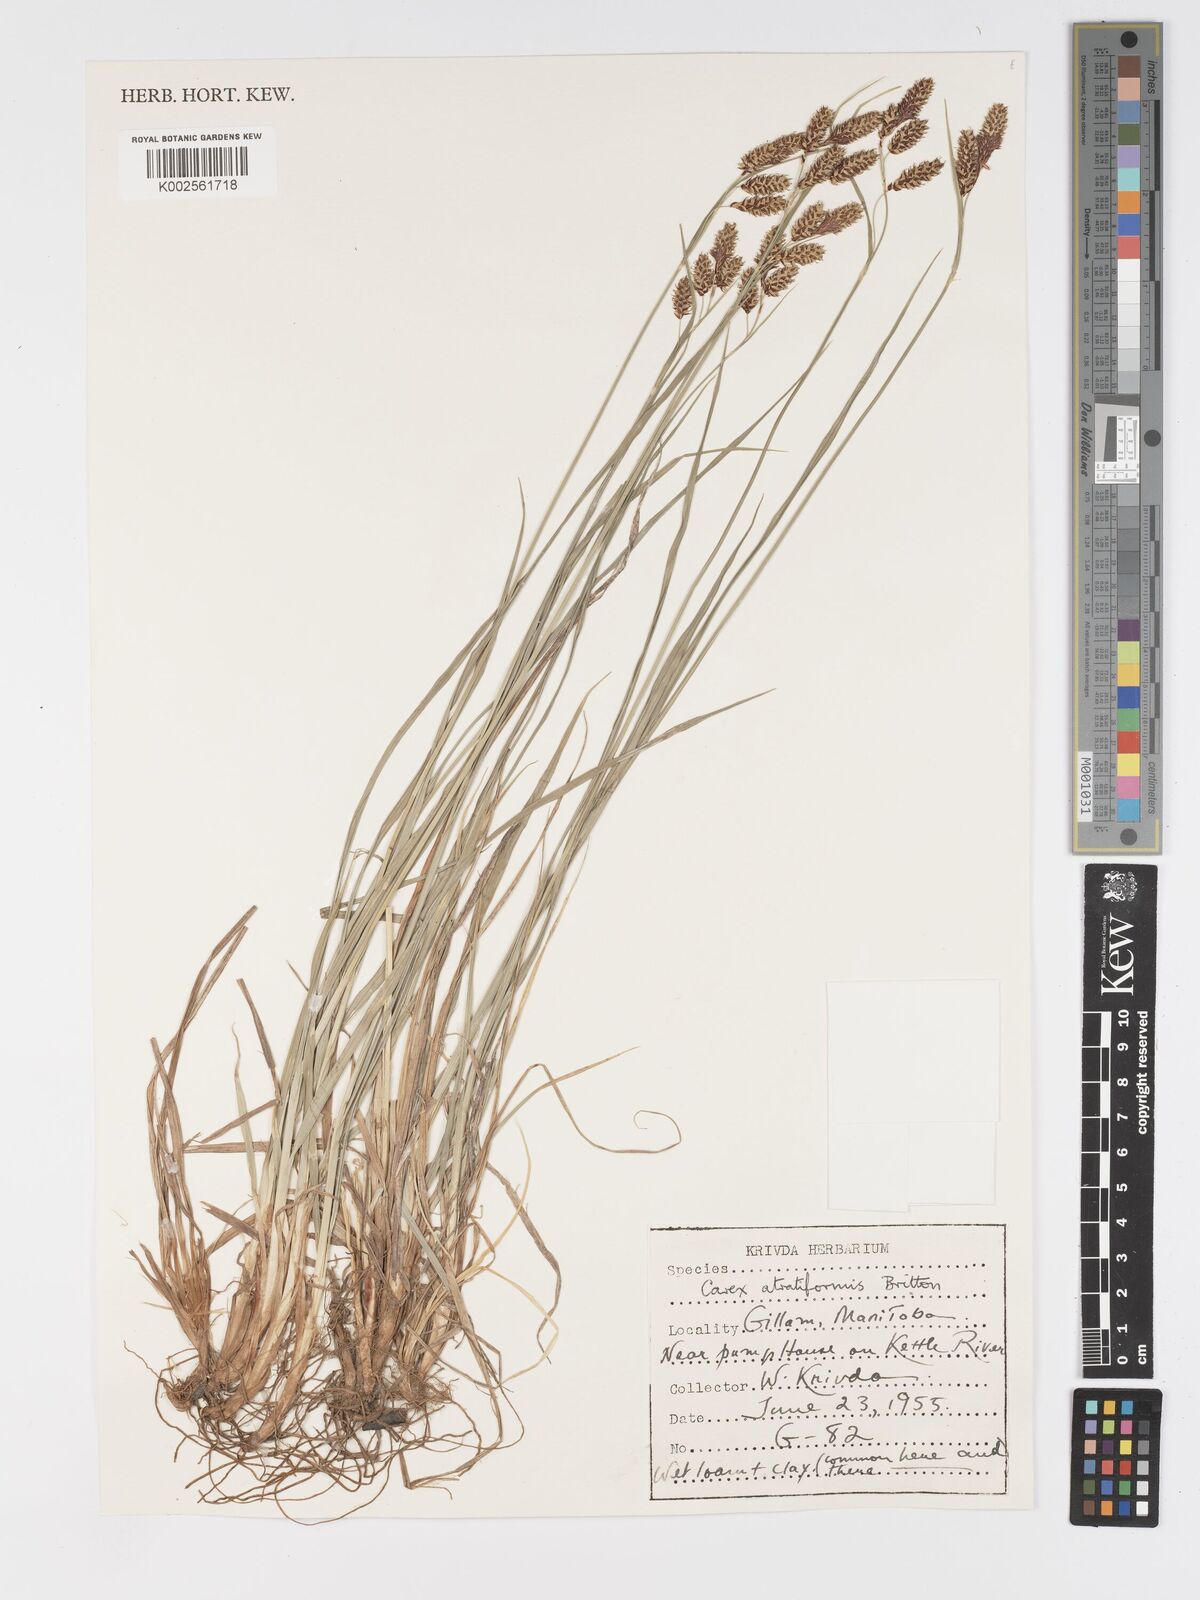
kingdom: Plantae
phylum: Tracheophyta
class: Liliopsida
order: Poales
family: Cyperaceae
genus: Carex
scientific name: Carex atratiformis
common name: Black sedge
